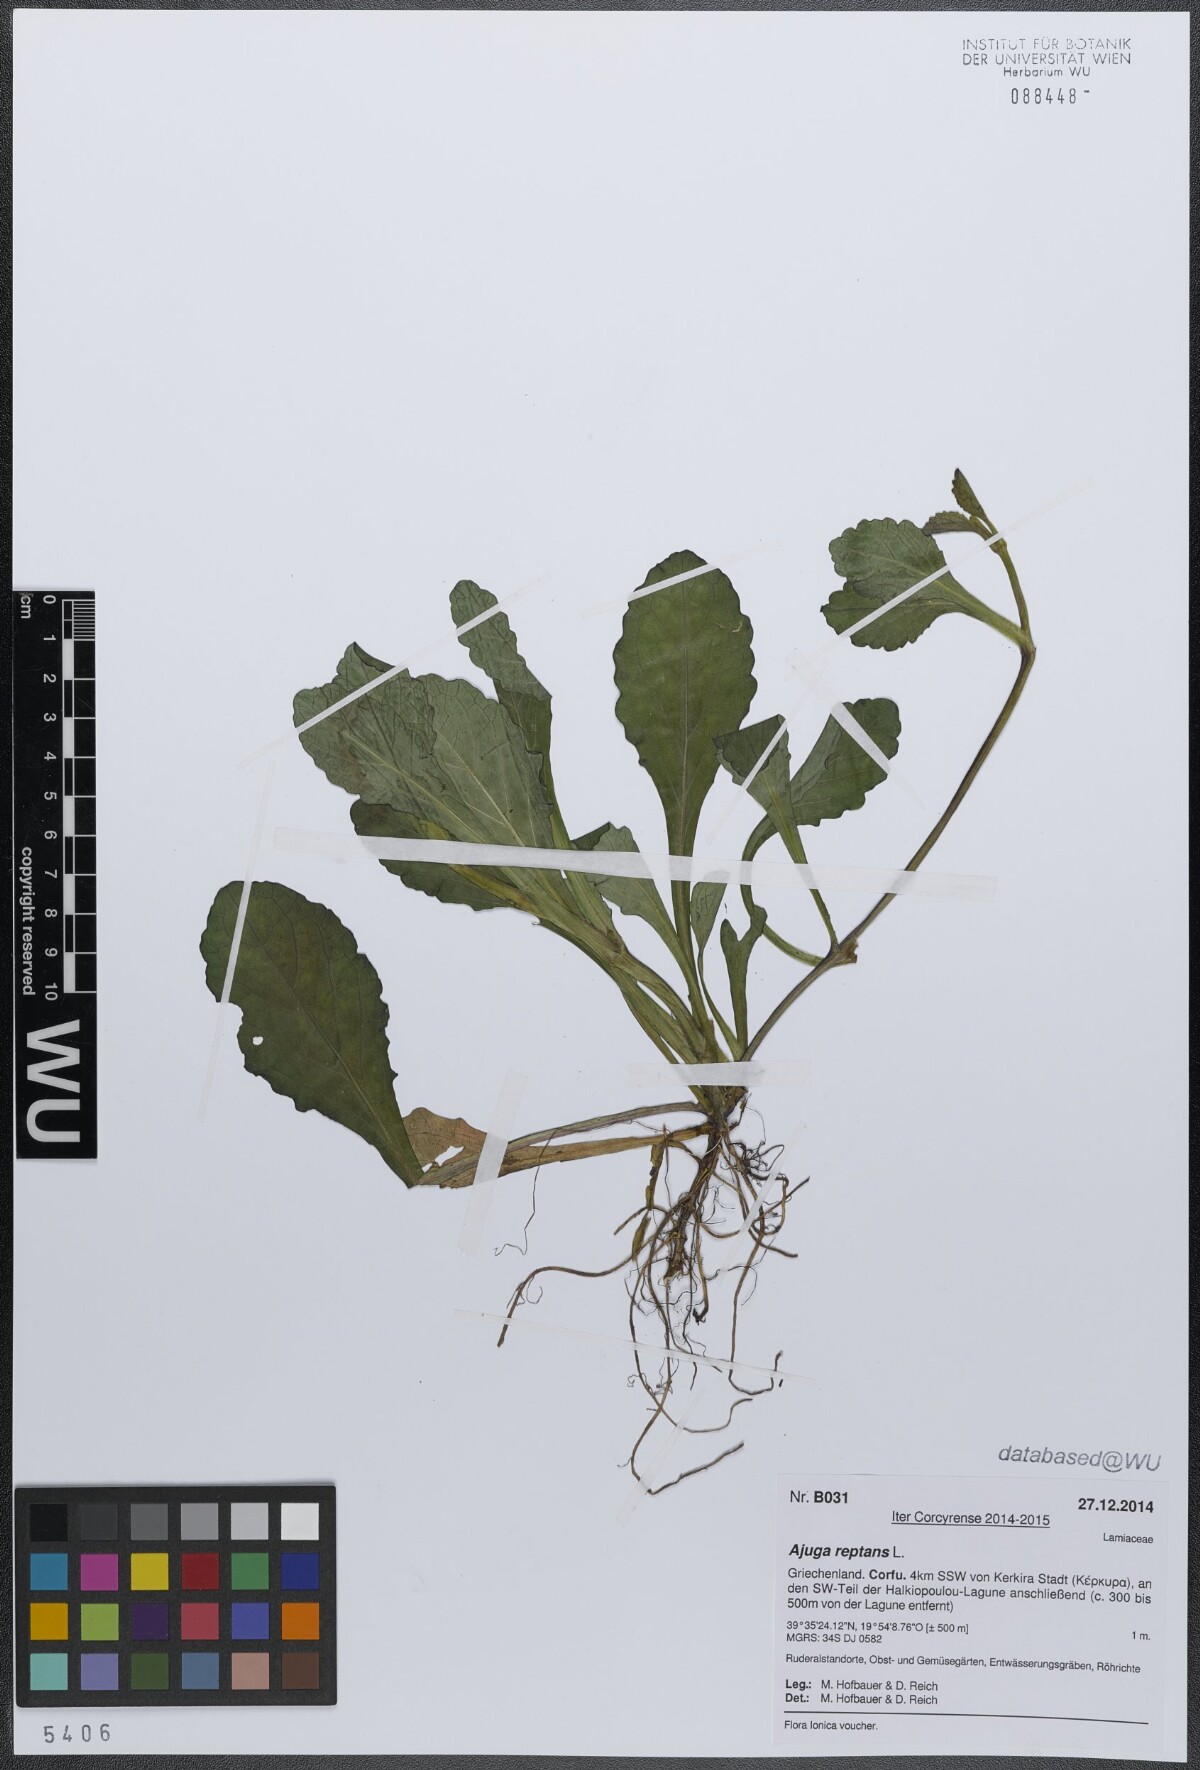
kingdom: Plantae
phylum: Tracheophyta
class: Magnoliopsida
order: Lamiales
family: Lamiaceae
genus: Ajuga
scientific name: Ajuga reptans
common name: Bugle
